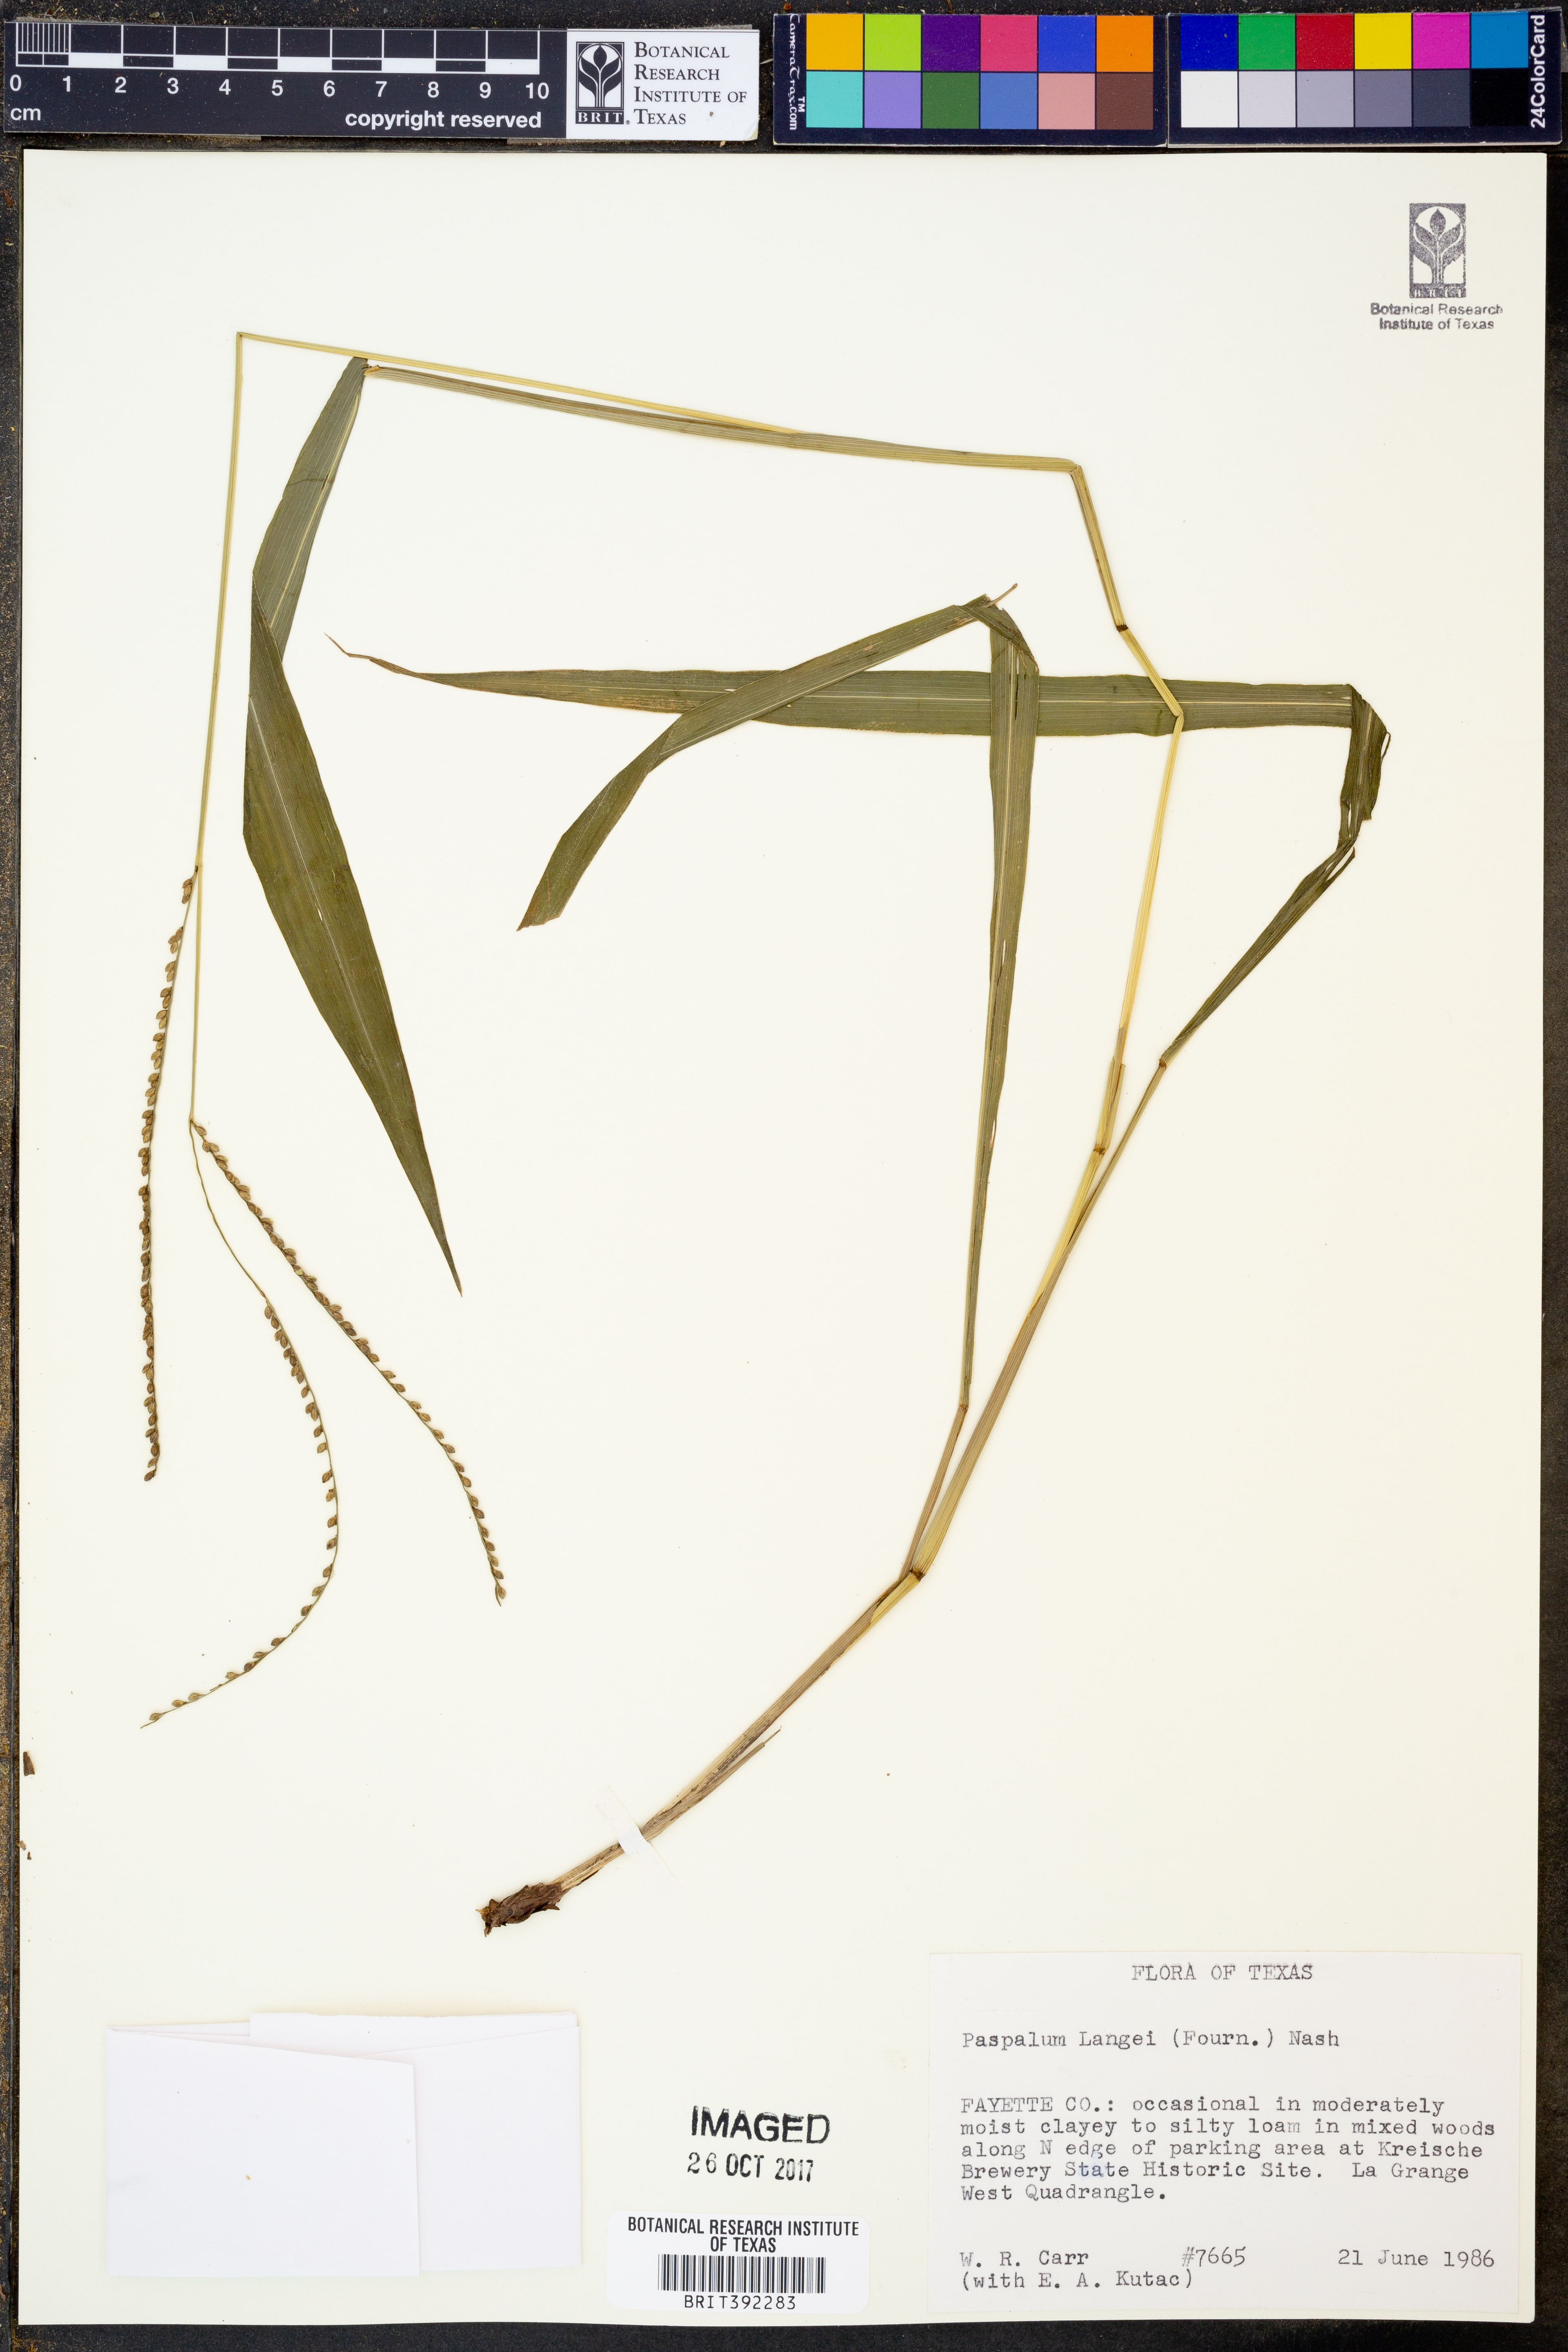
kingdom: Plantae
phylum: Tracheophyta
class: Liliopsida
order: Poales
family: Poaceae
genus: Paspalum
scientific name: Paspalum langei
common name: Rusty-seed paspalum
